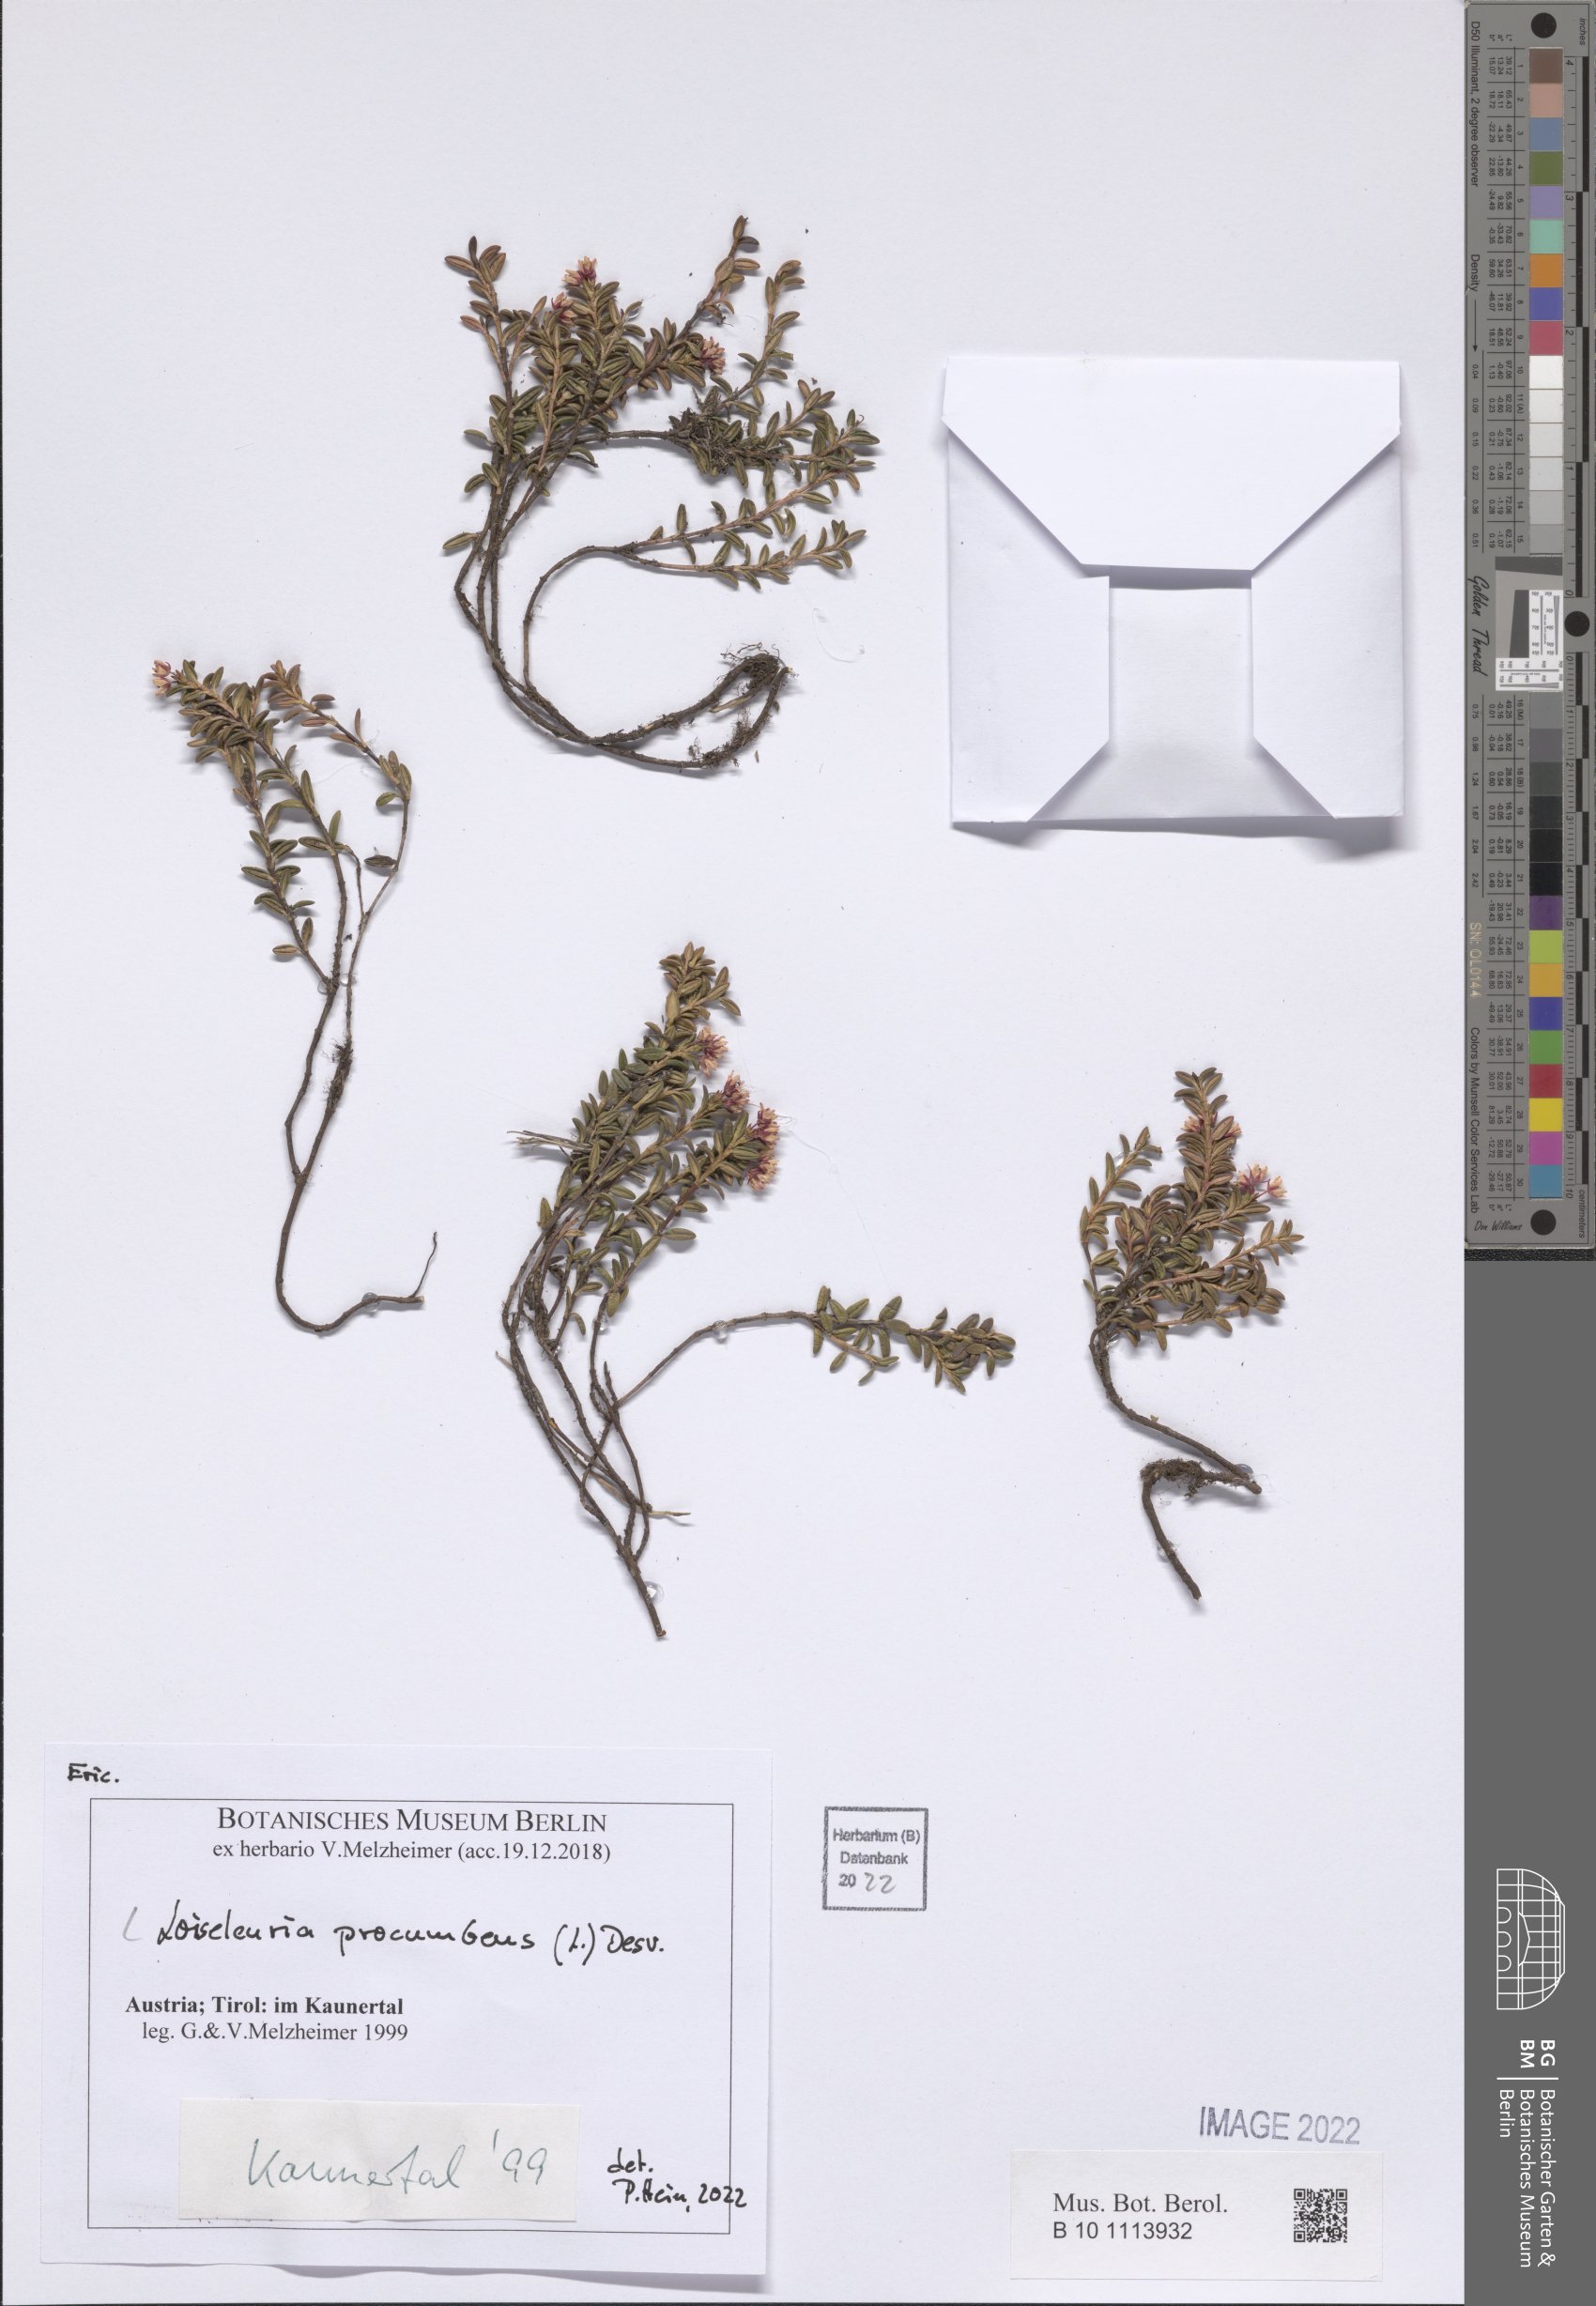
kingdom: Plantae
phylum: Tracheophyta
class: Magnoliopsida
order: Ericales
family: Ericaceae
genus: Kalmia
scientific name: Kalmia procumbens
